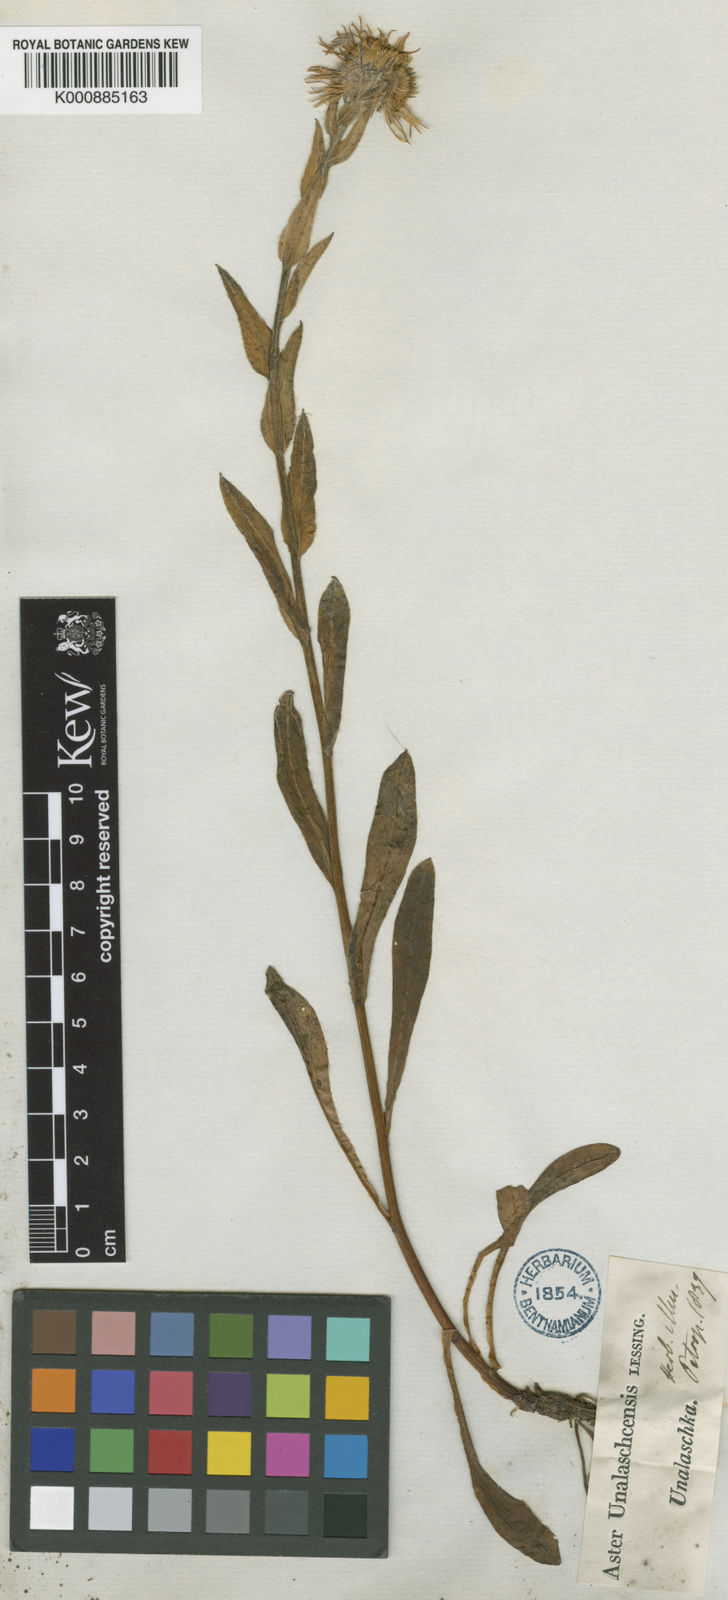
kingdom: Plantae
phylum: Tracheophyta
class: Magnoliopsida
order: Asterales
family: Asteraceae
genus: Erigeron
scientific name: Erigeron
